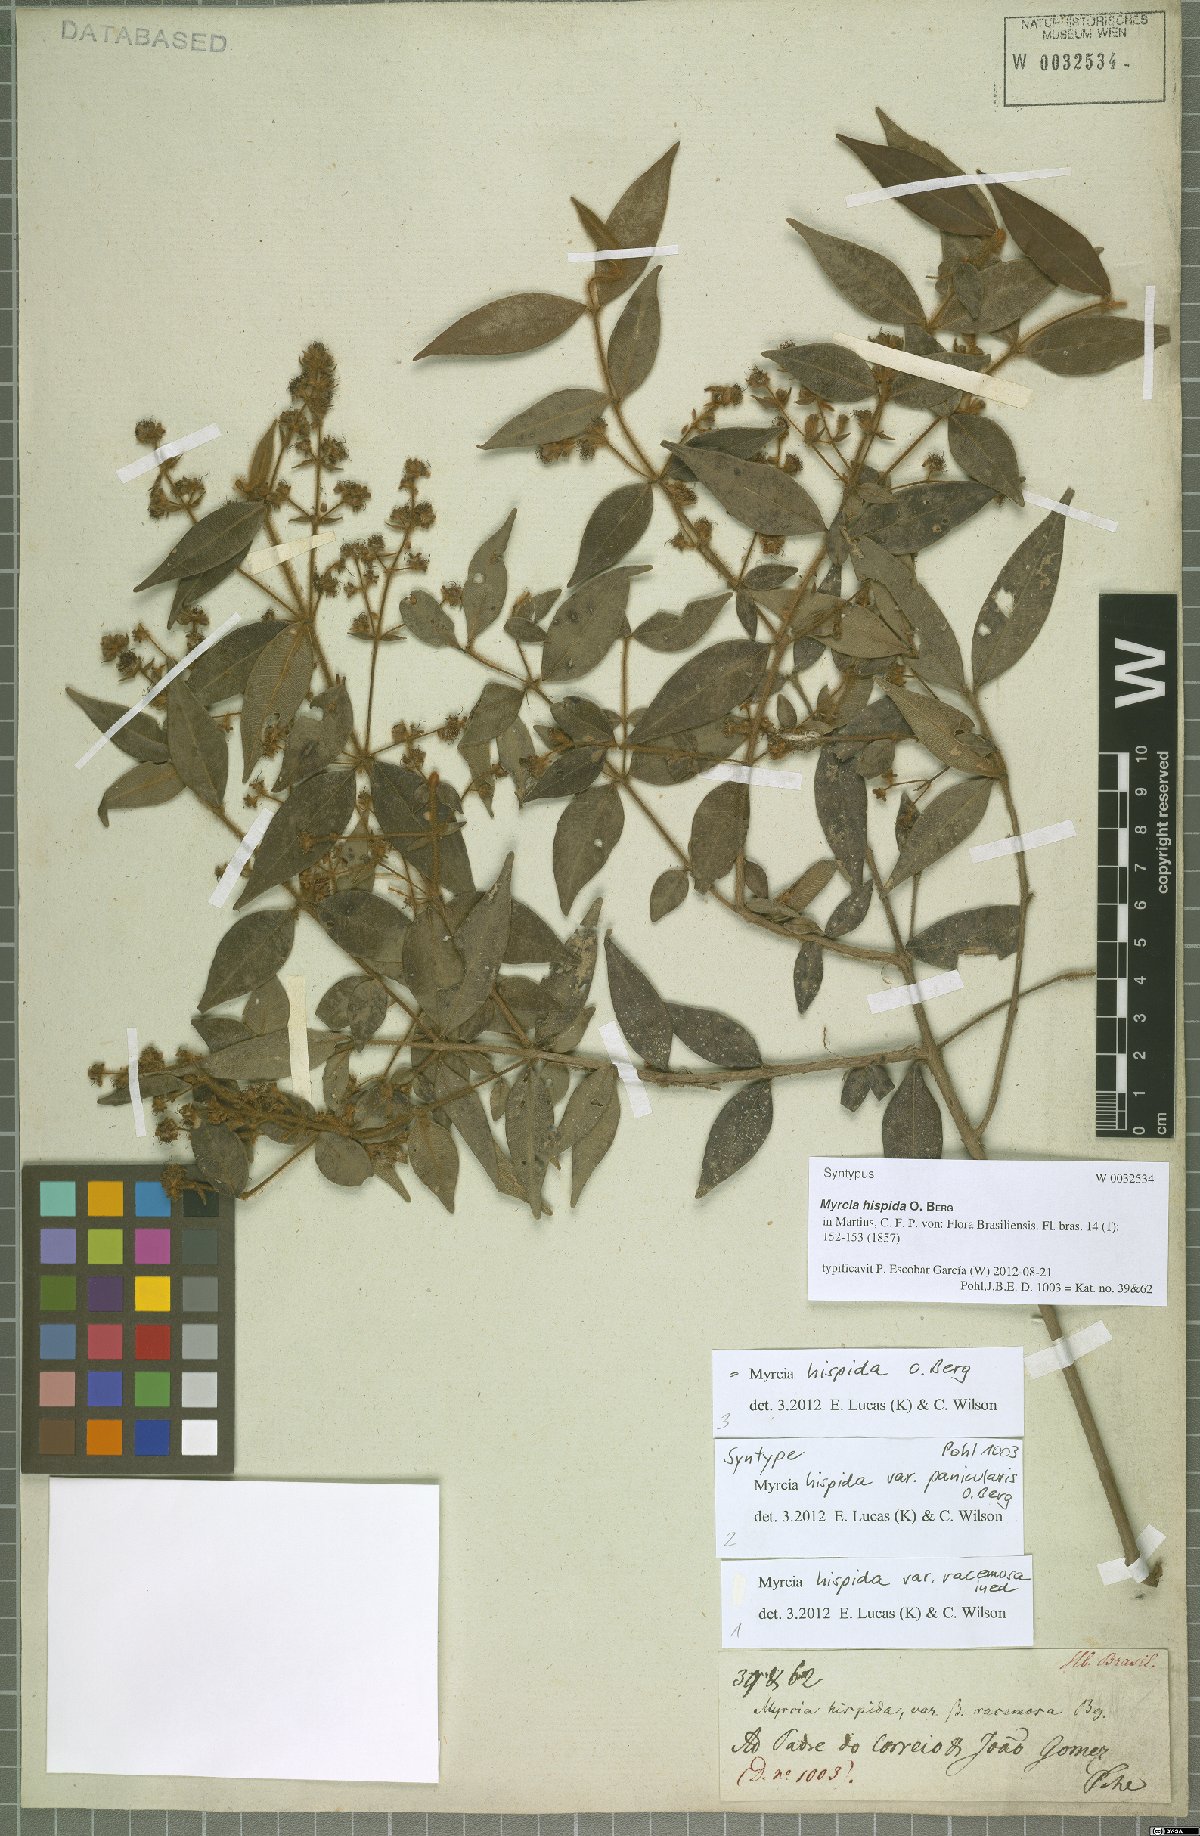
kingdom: Plantae
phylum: Tracheophyta
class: Magnoliopsida
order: Myrtales
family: Myrtaceae
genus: Myrcia
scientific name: Myrcia hispida
